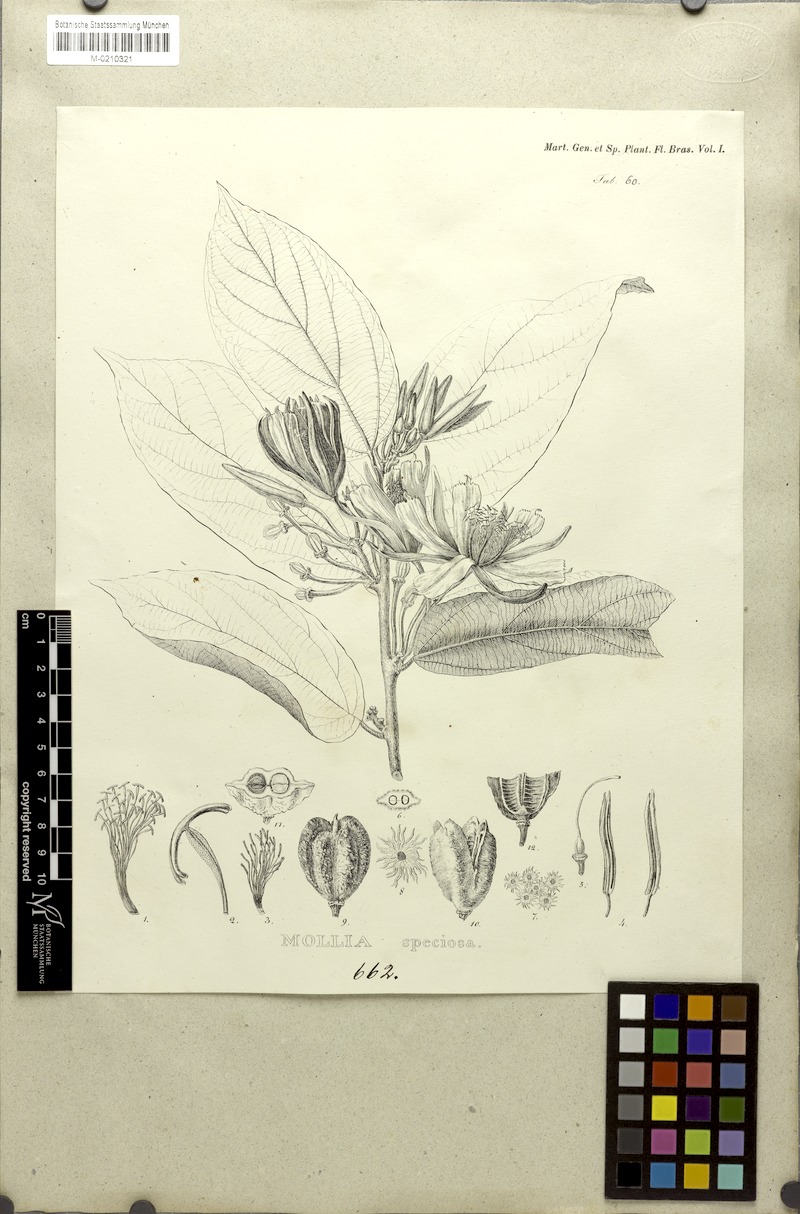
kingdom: Plantae
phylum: Tracheophyta
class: Magnoliopsida
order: Malvales
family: Malvaceae
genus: Mollia
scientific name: Mollia speciosa
